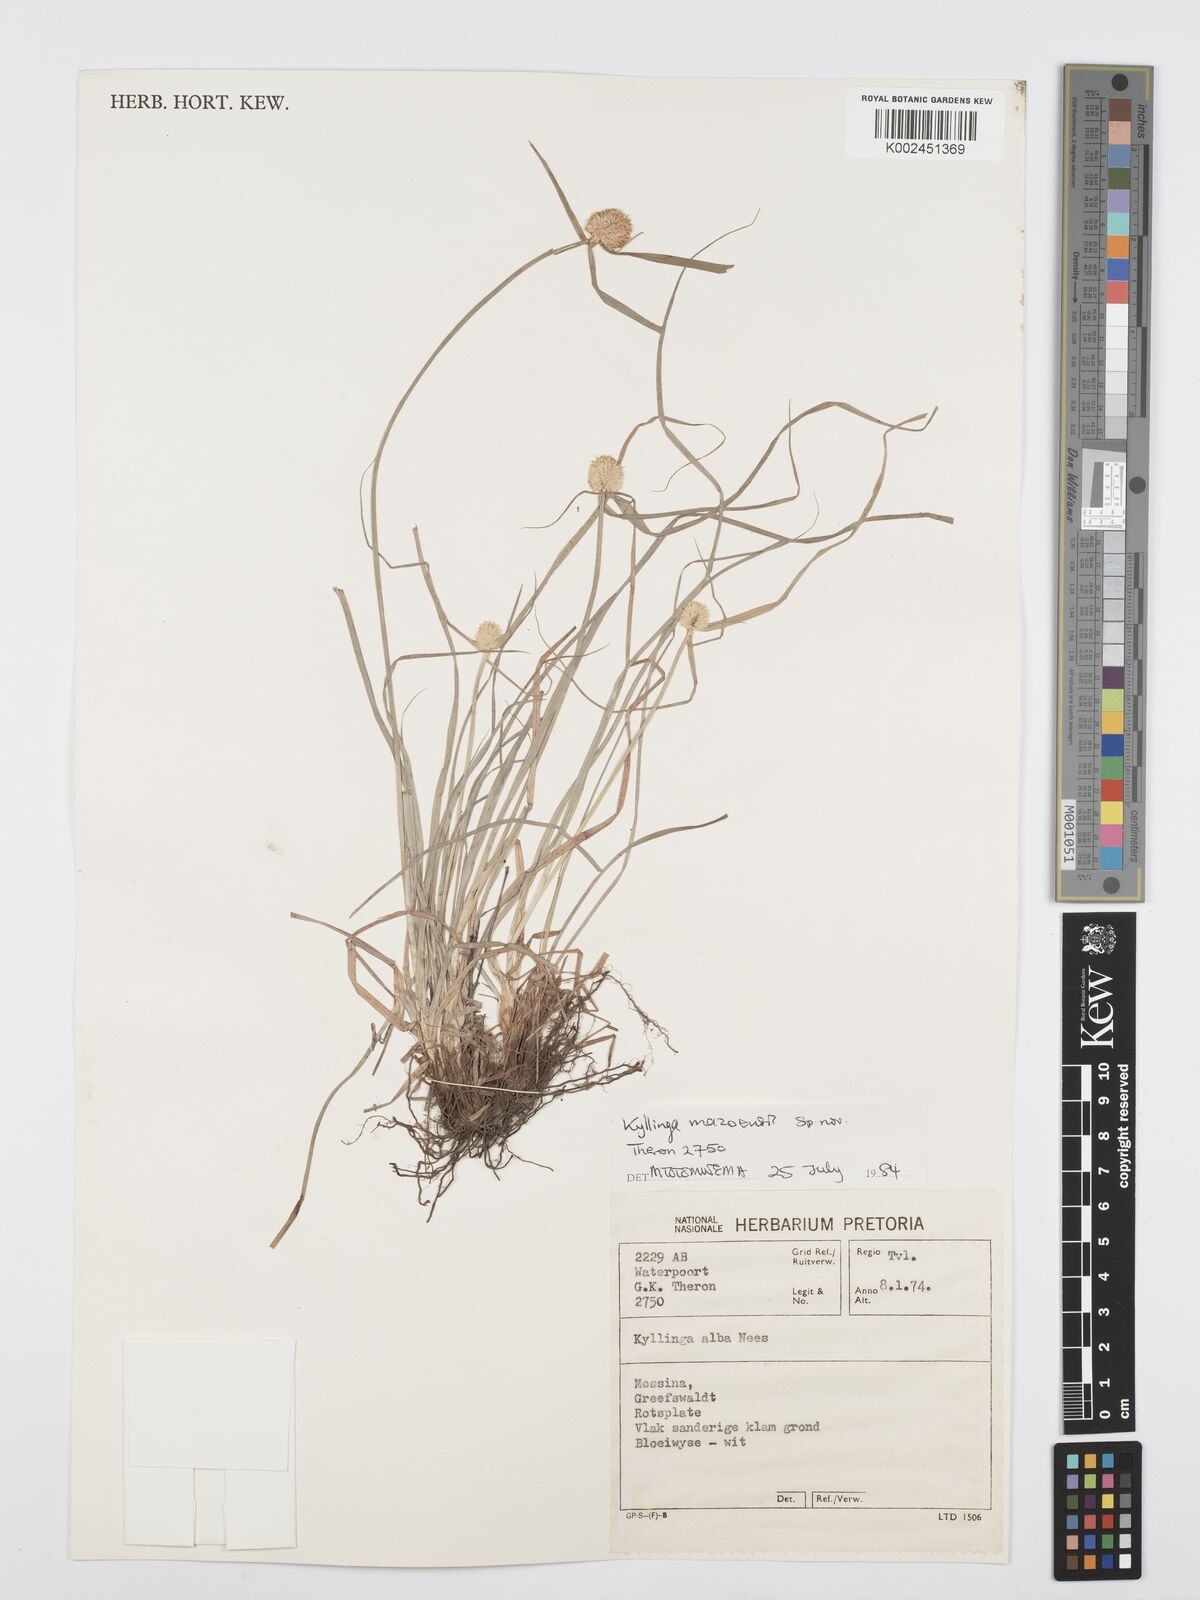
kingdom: Plantae
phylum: Tracheophyta
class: Liliopsida
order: Poales
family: Cyperaceae
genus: Cyperus
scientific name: Cyperus
